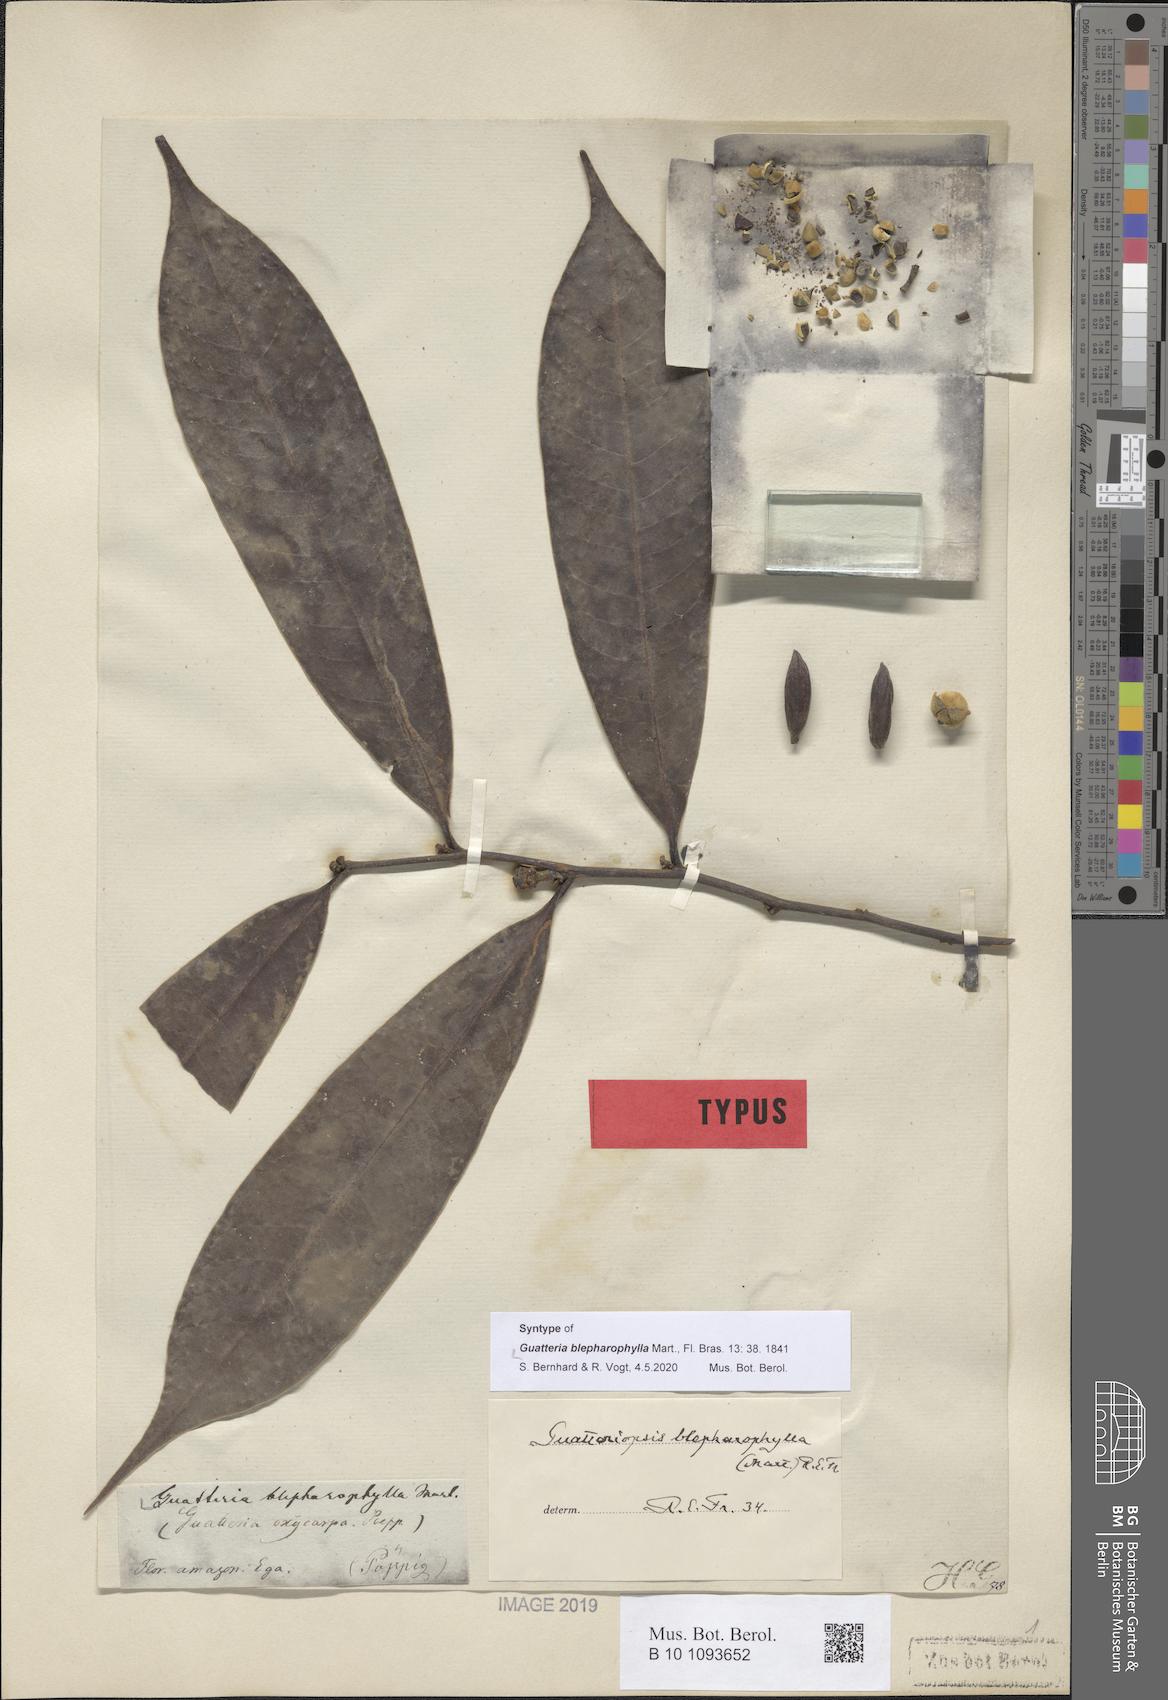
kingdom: Plantae
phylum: Tracheophyta
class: Magnoliopsida
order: Magnoliales
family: Annonaceae
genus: Guatteria
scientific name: Guatteria blepharophylla
